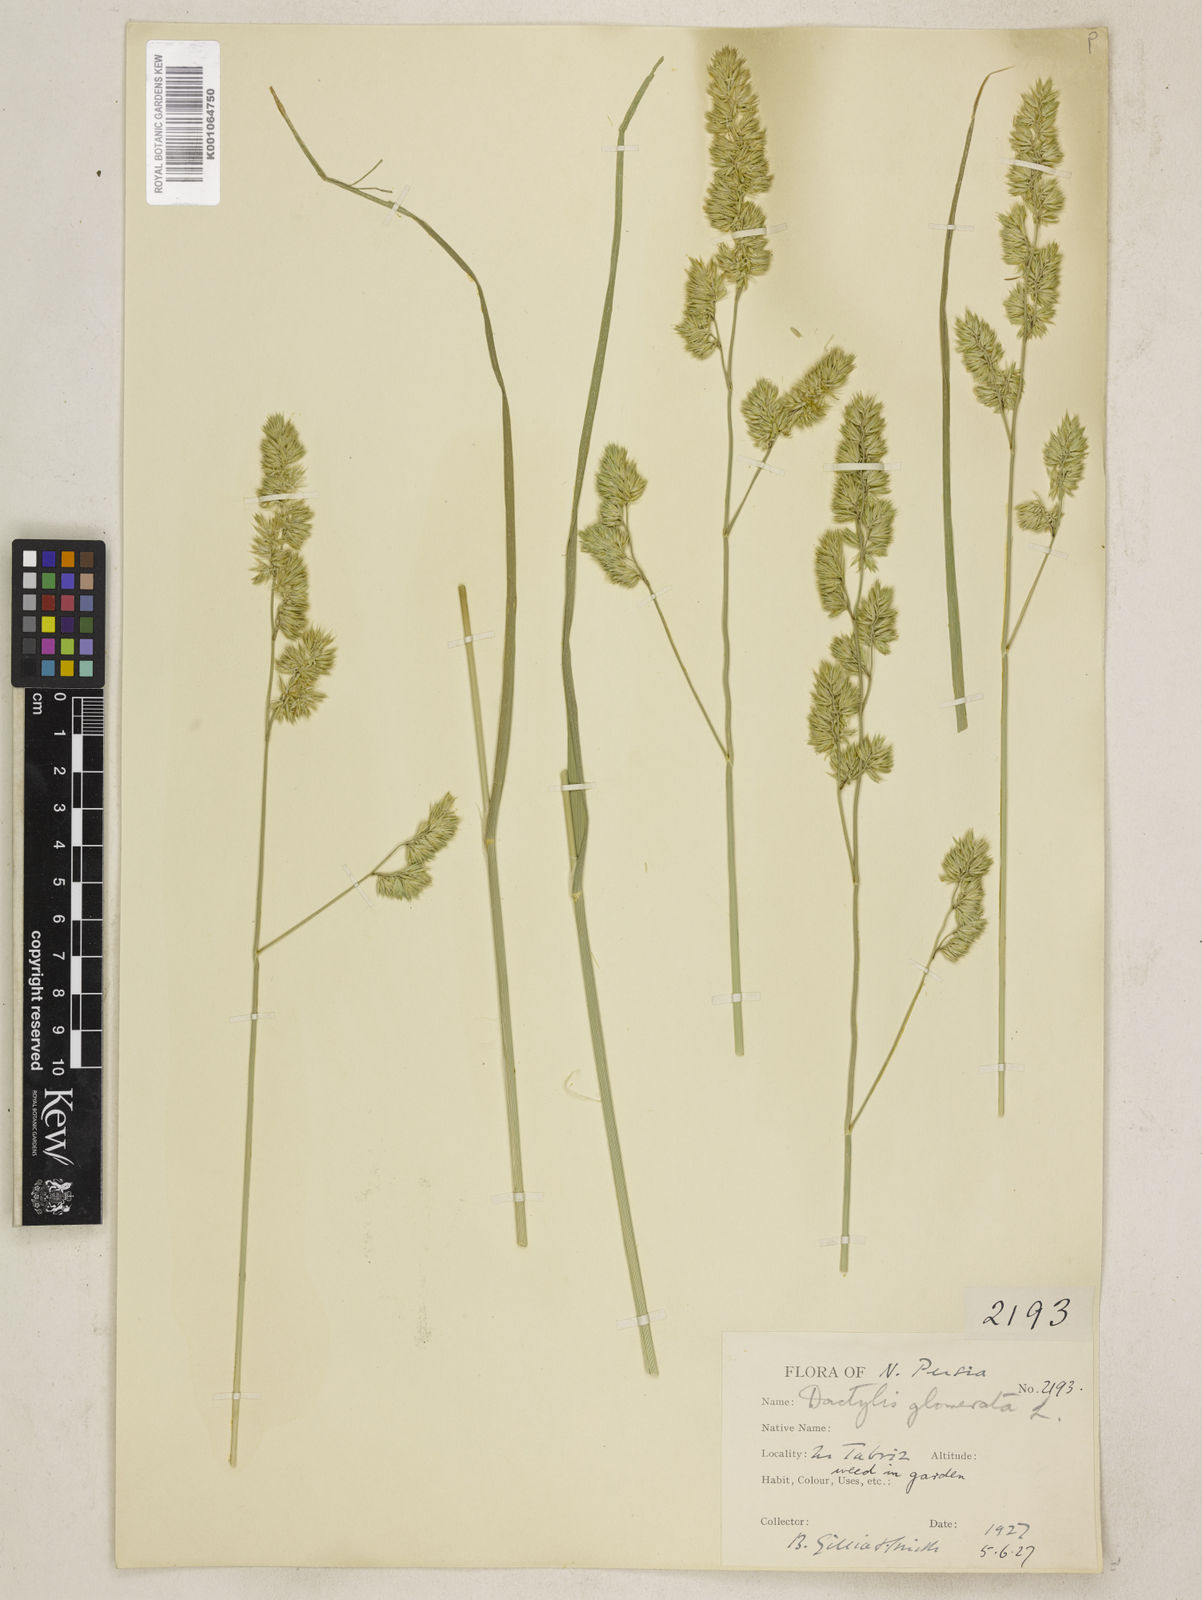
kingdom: Plantae
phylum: Tracheophyta
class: Liliopsida
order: Poales
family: Poaceae
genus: Dactylis
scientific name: Dactylis glomerata
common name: Orchardgrass
